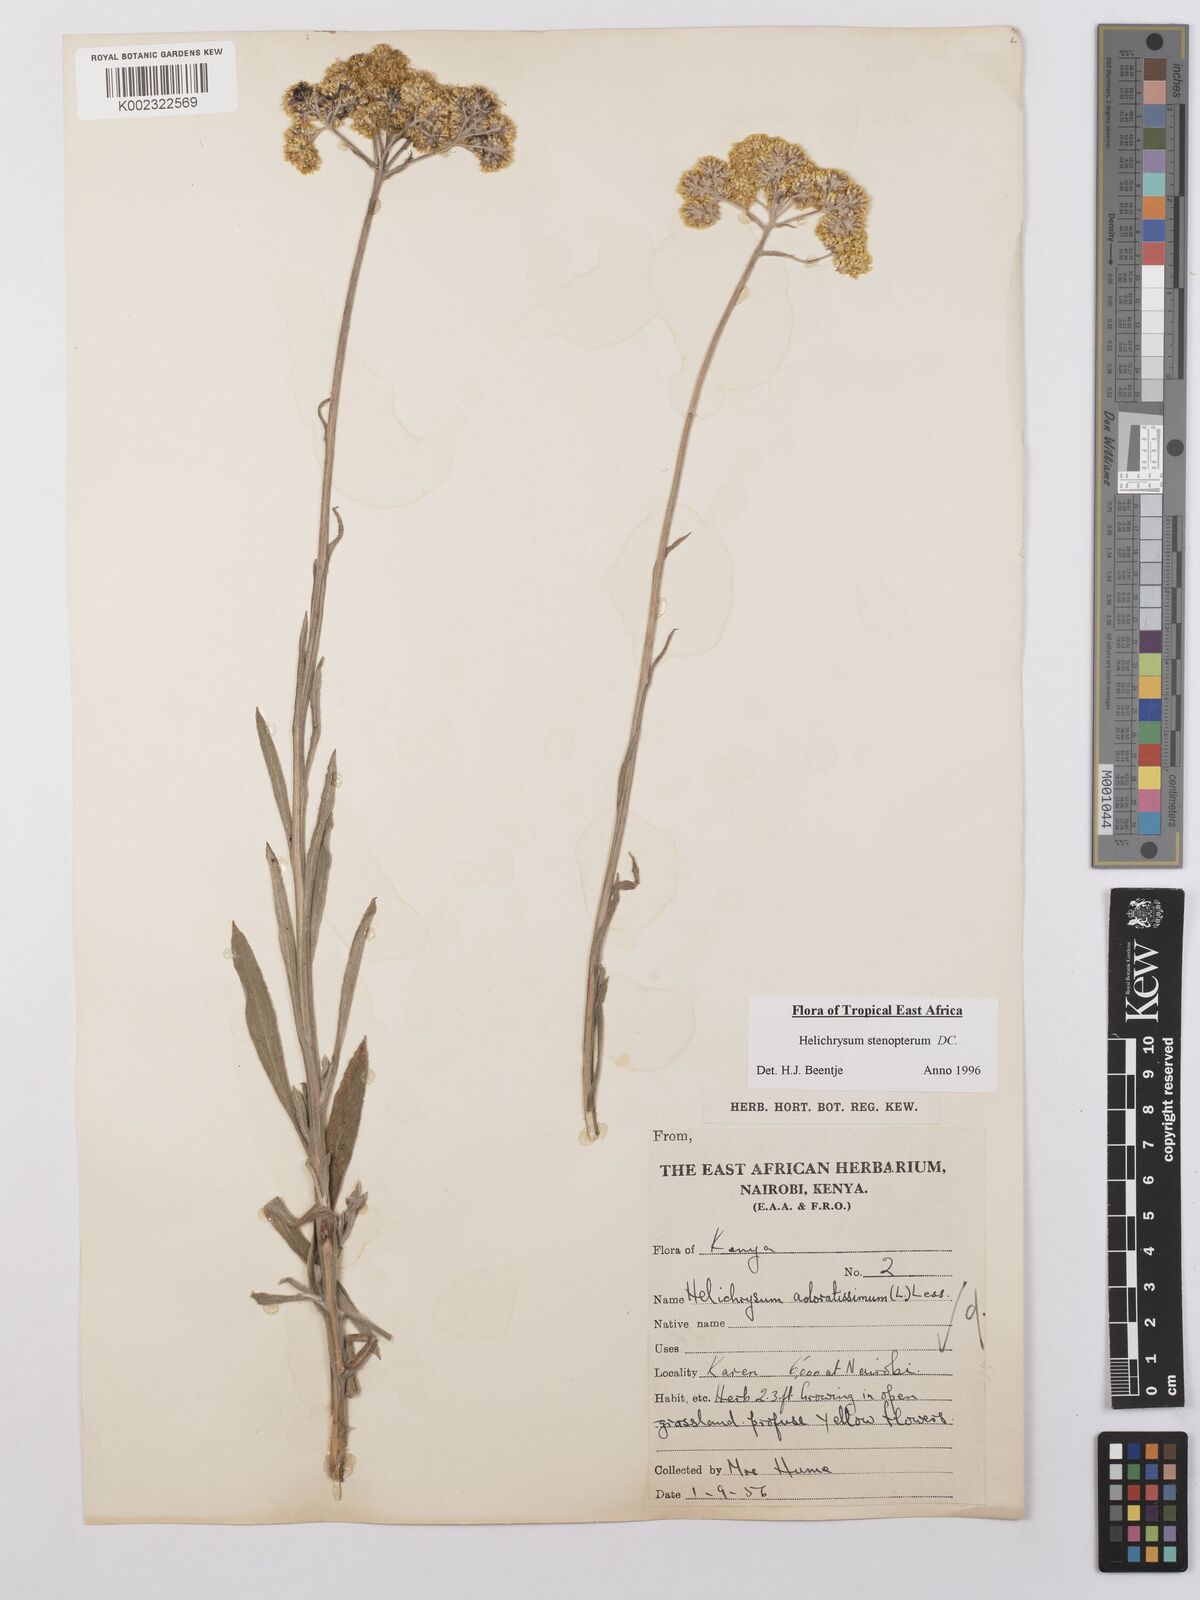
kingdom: Plantae
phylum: Tracheophyta
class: Magnoliopsida
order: Asterales
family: Asteraceae
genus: Helichrysum
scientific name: Helichrysum stenopterum
